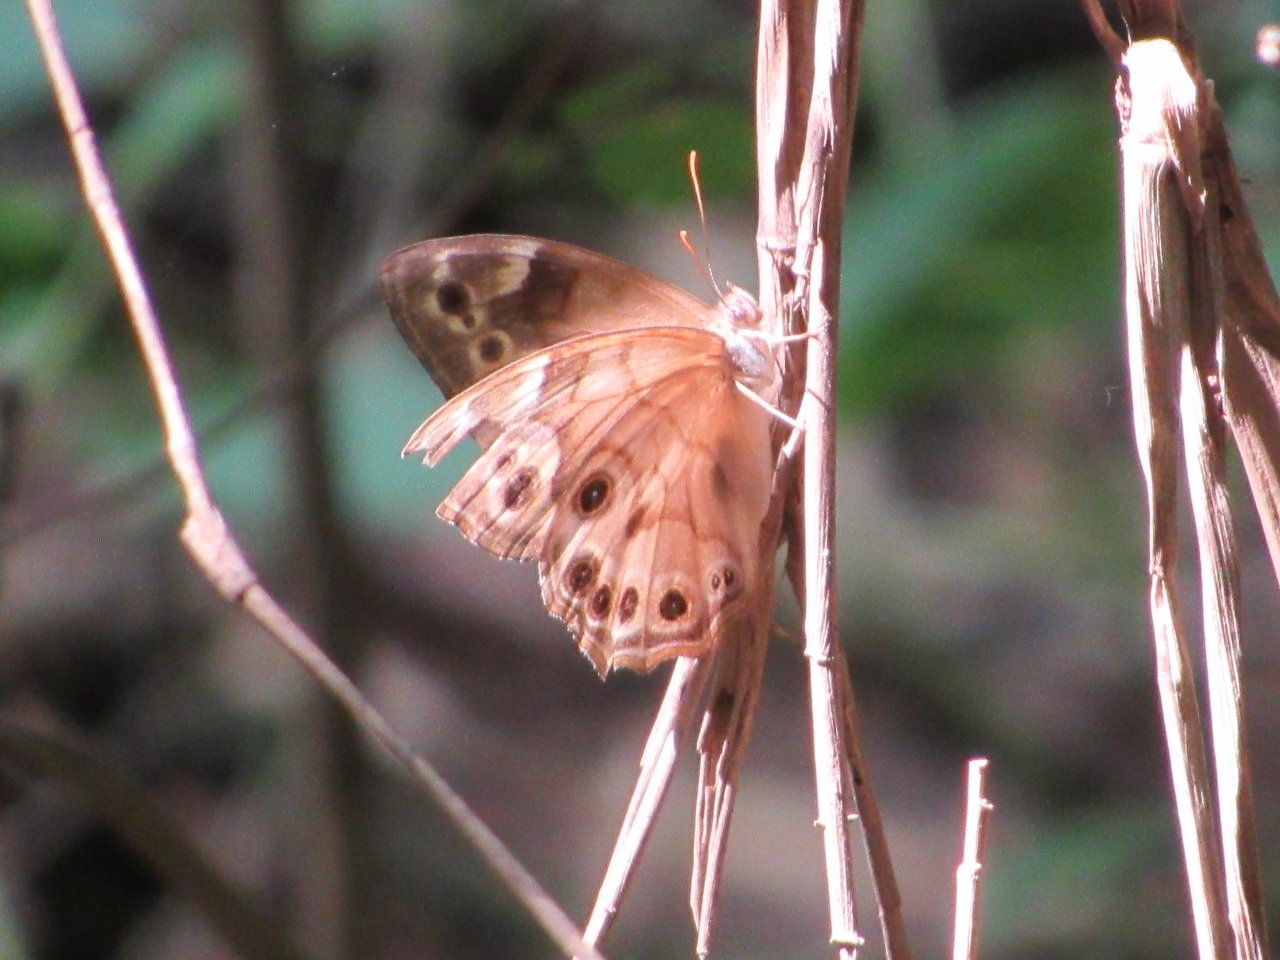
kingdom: Animalia
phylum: Arthropoda
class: Insecta
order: Lepidoptera
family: Nymphalidae
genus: Enodia
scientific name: Enodia portlandia
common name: Southern Pearly Eye
